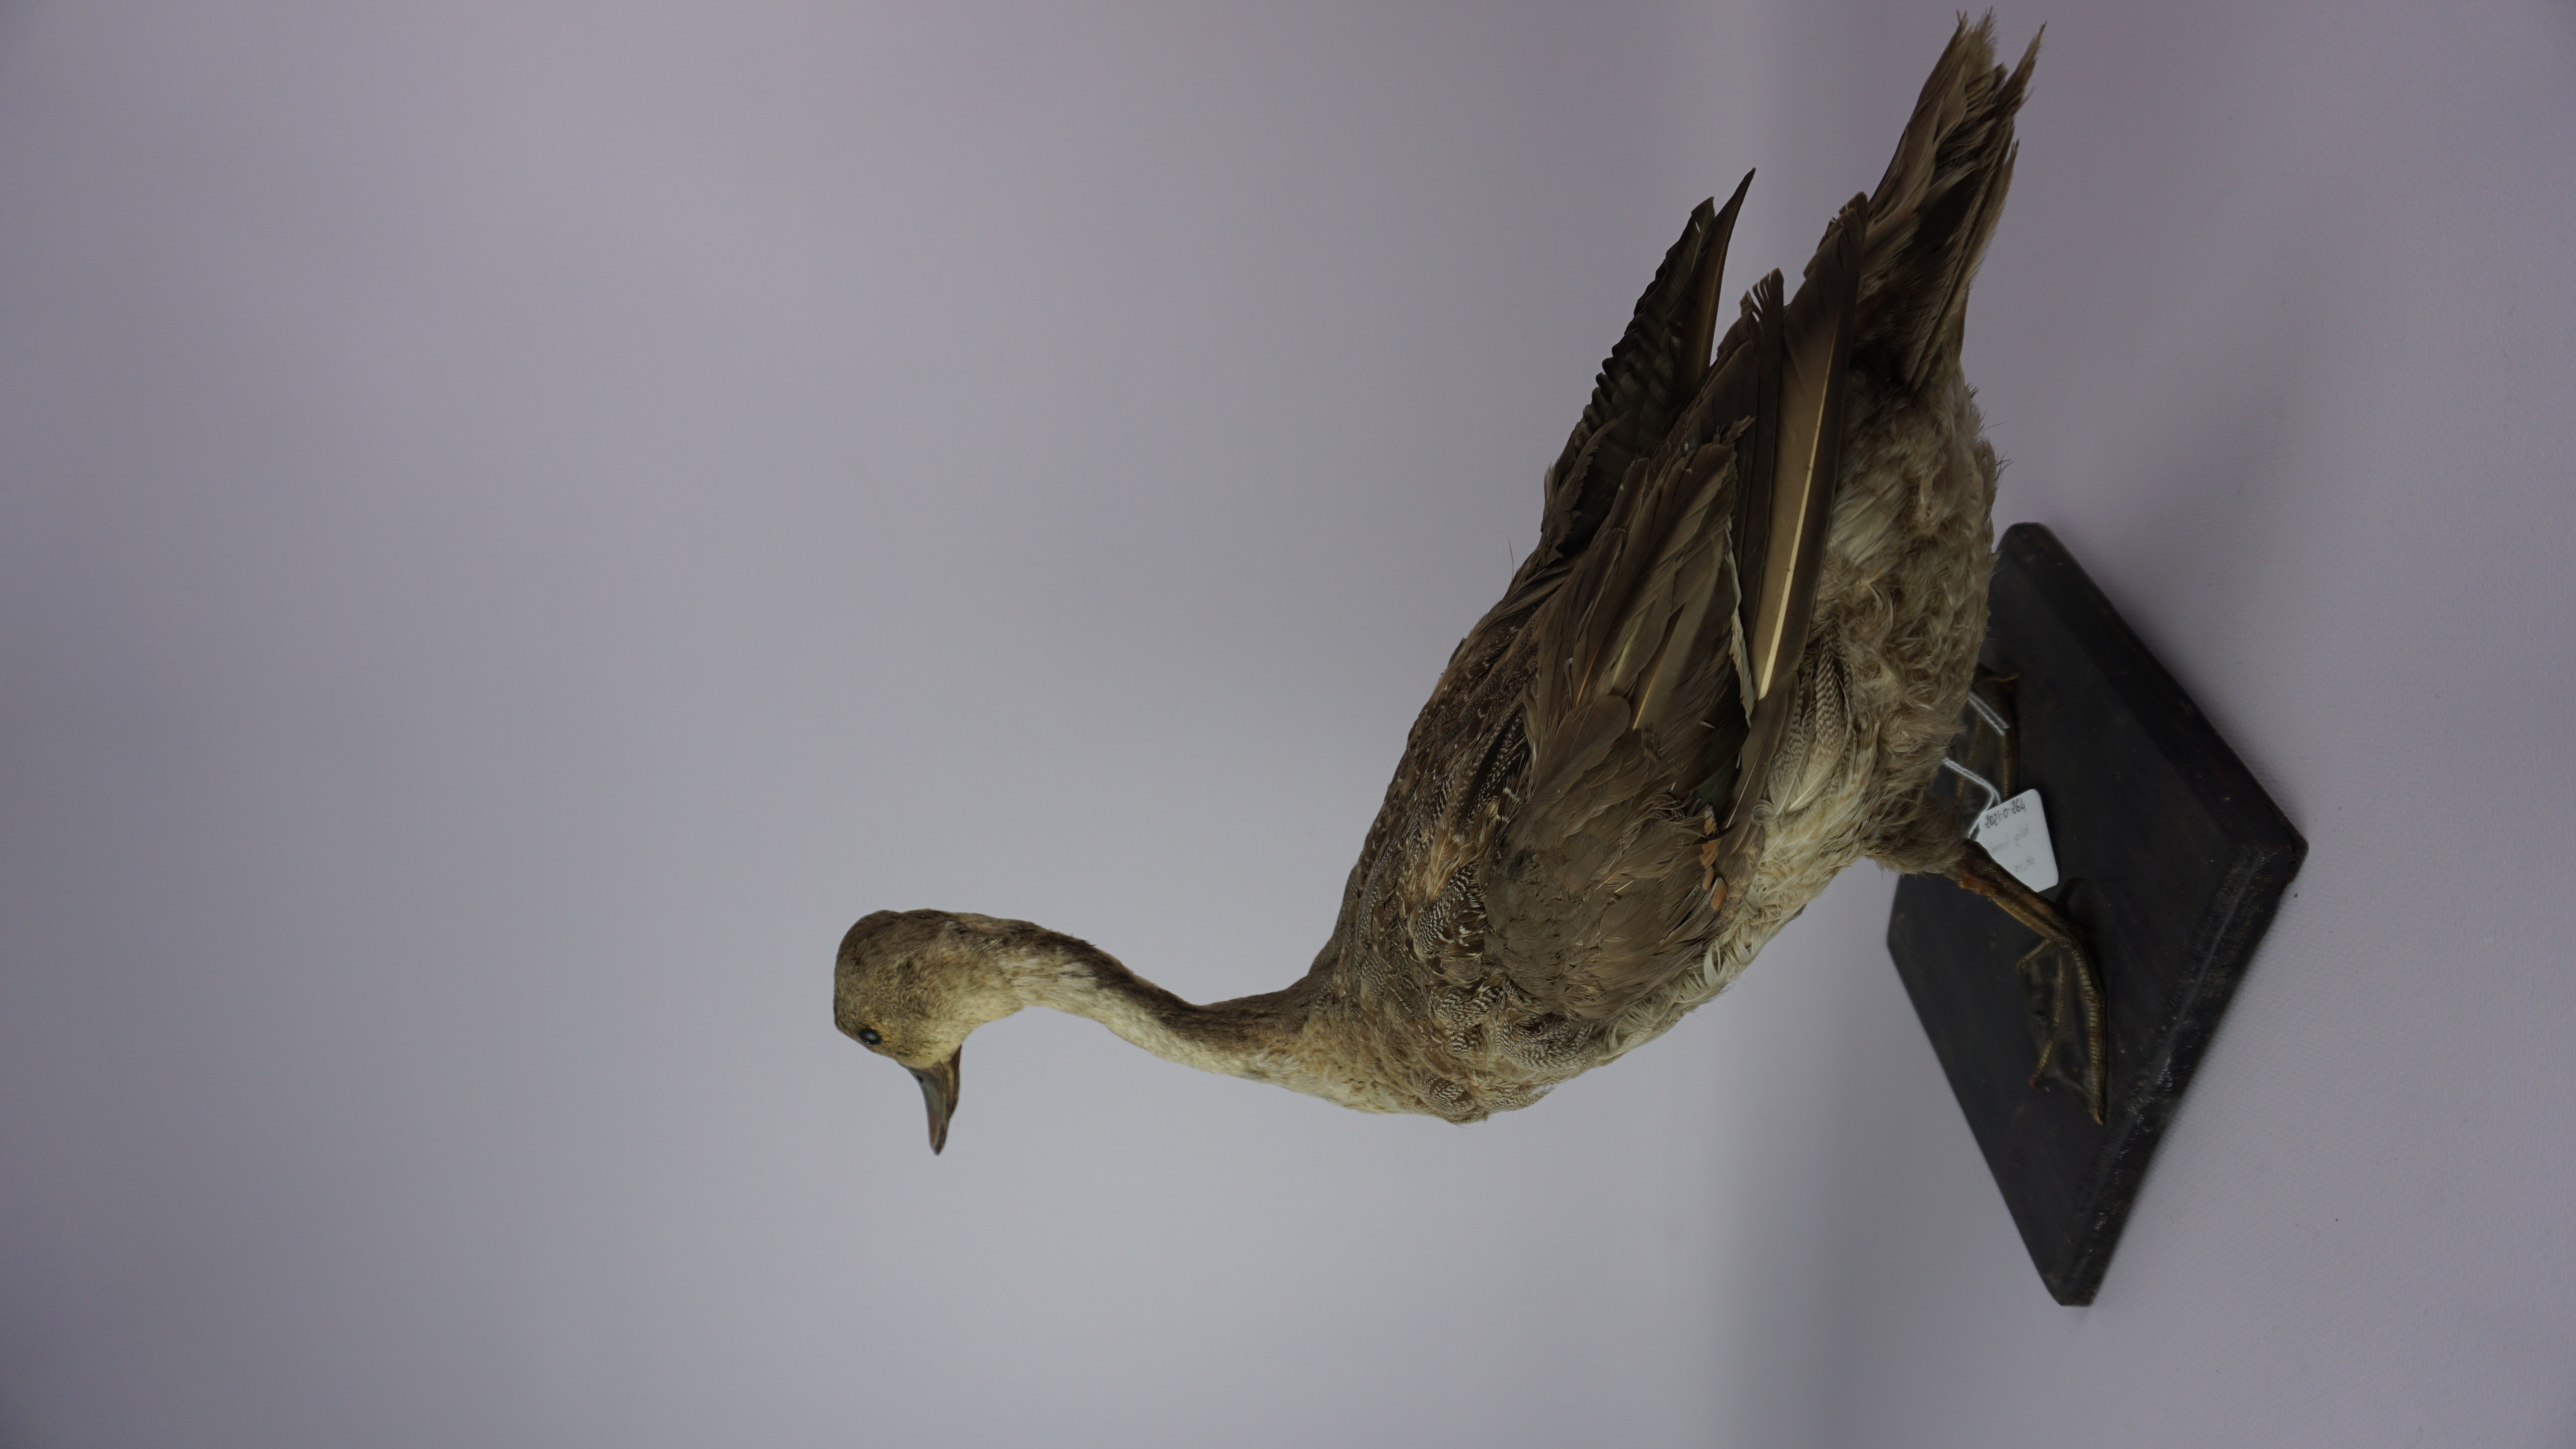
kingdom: Animalia
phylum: Chordata
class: Aves
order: Anseriformes
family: Anatidae
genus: Anas
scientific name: Anas acuta
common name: Northern pintail
